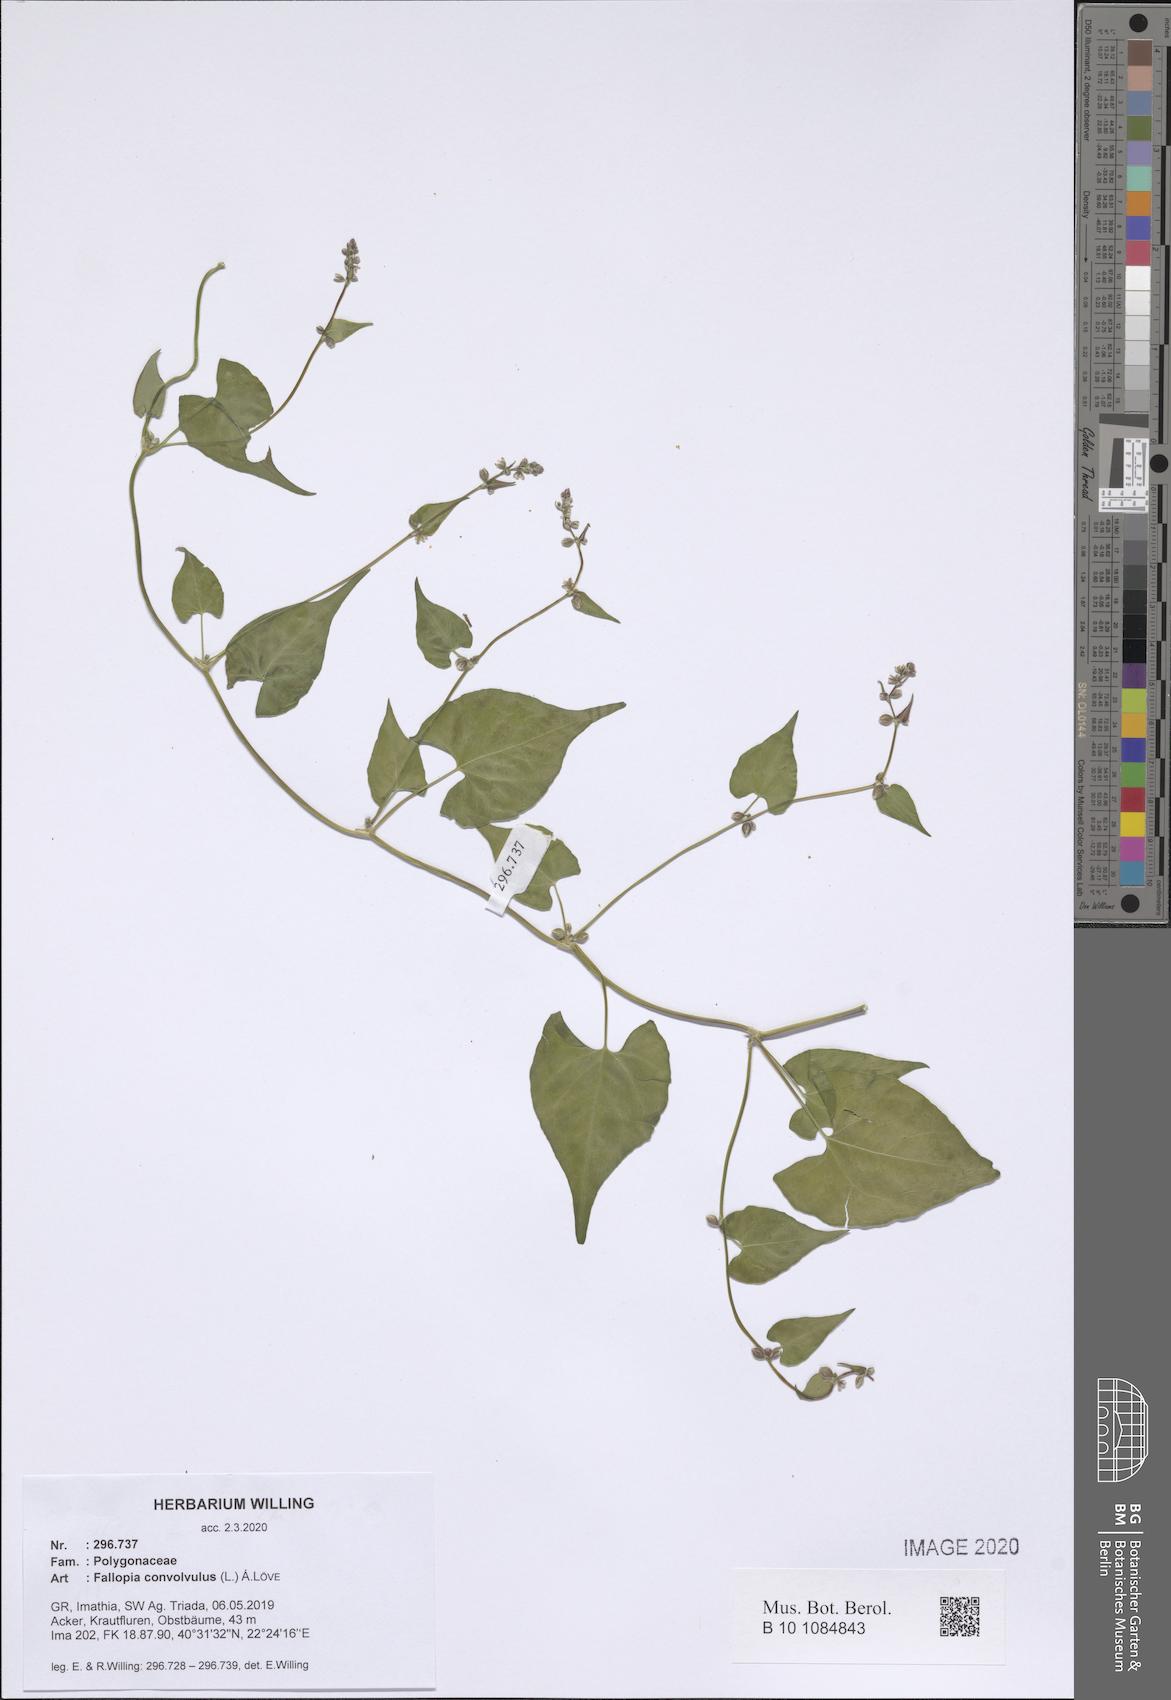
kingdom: Plantae
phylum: Tracheophyta
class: Magnoliopsida
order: Caryophyllales
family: Polygonaceae
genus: Fallopia
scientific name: Fallopia convolvulus
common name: Black bindweed
